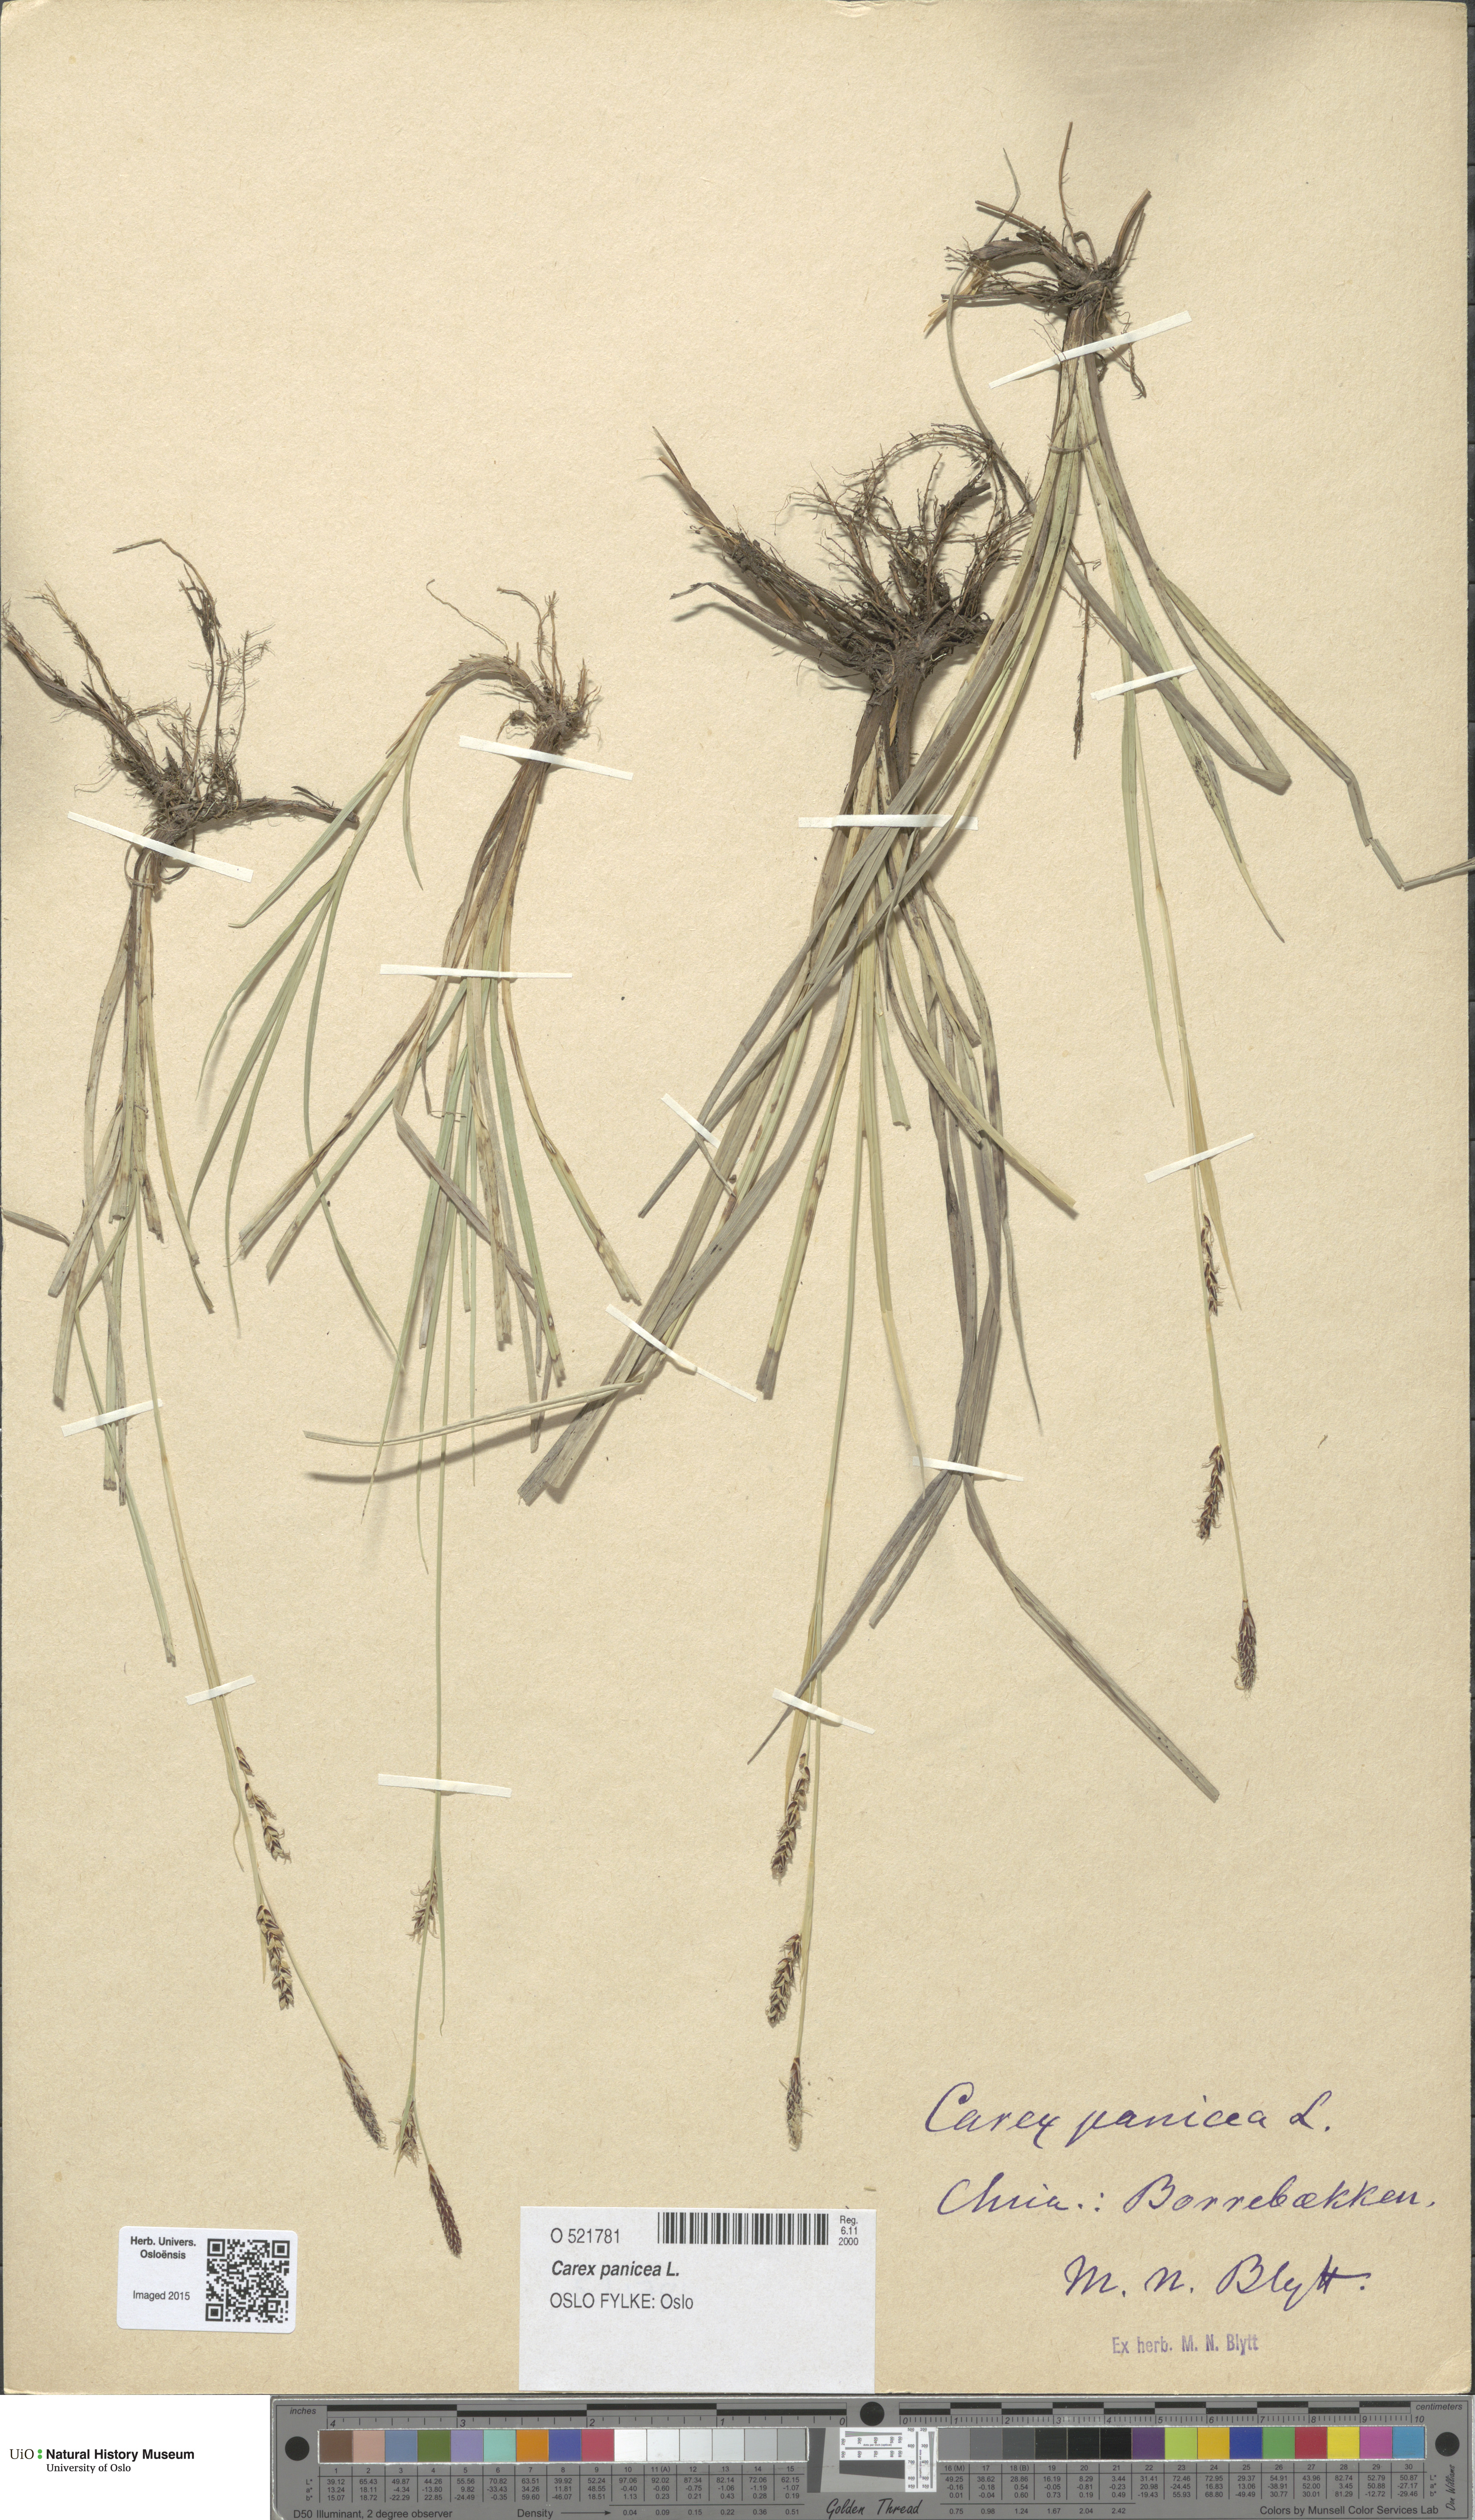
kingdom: Plantae
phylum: Tracheophyta
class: Liliopsida
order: Poales
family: Cyperaceae
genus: Carex
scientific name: Carex panicea
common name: Carnation sedge
